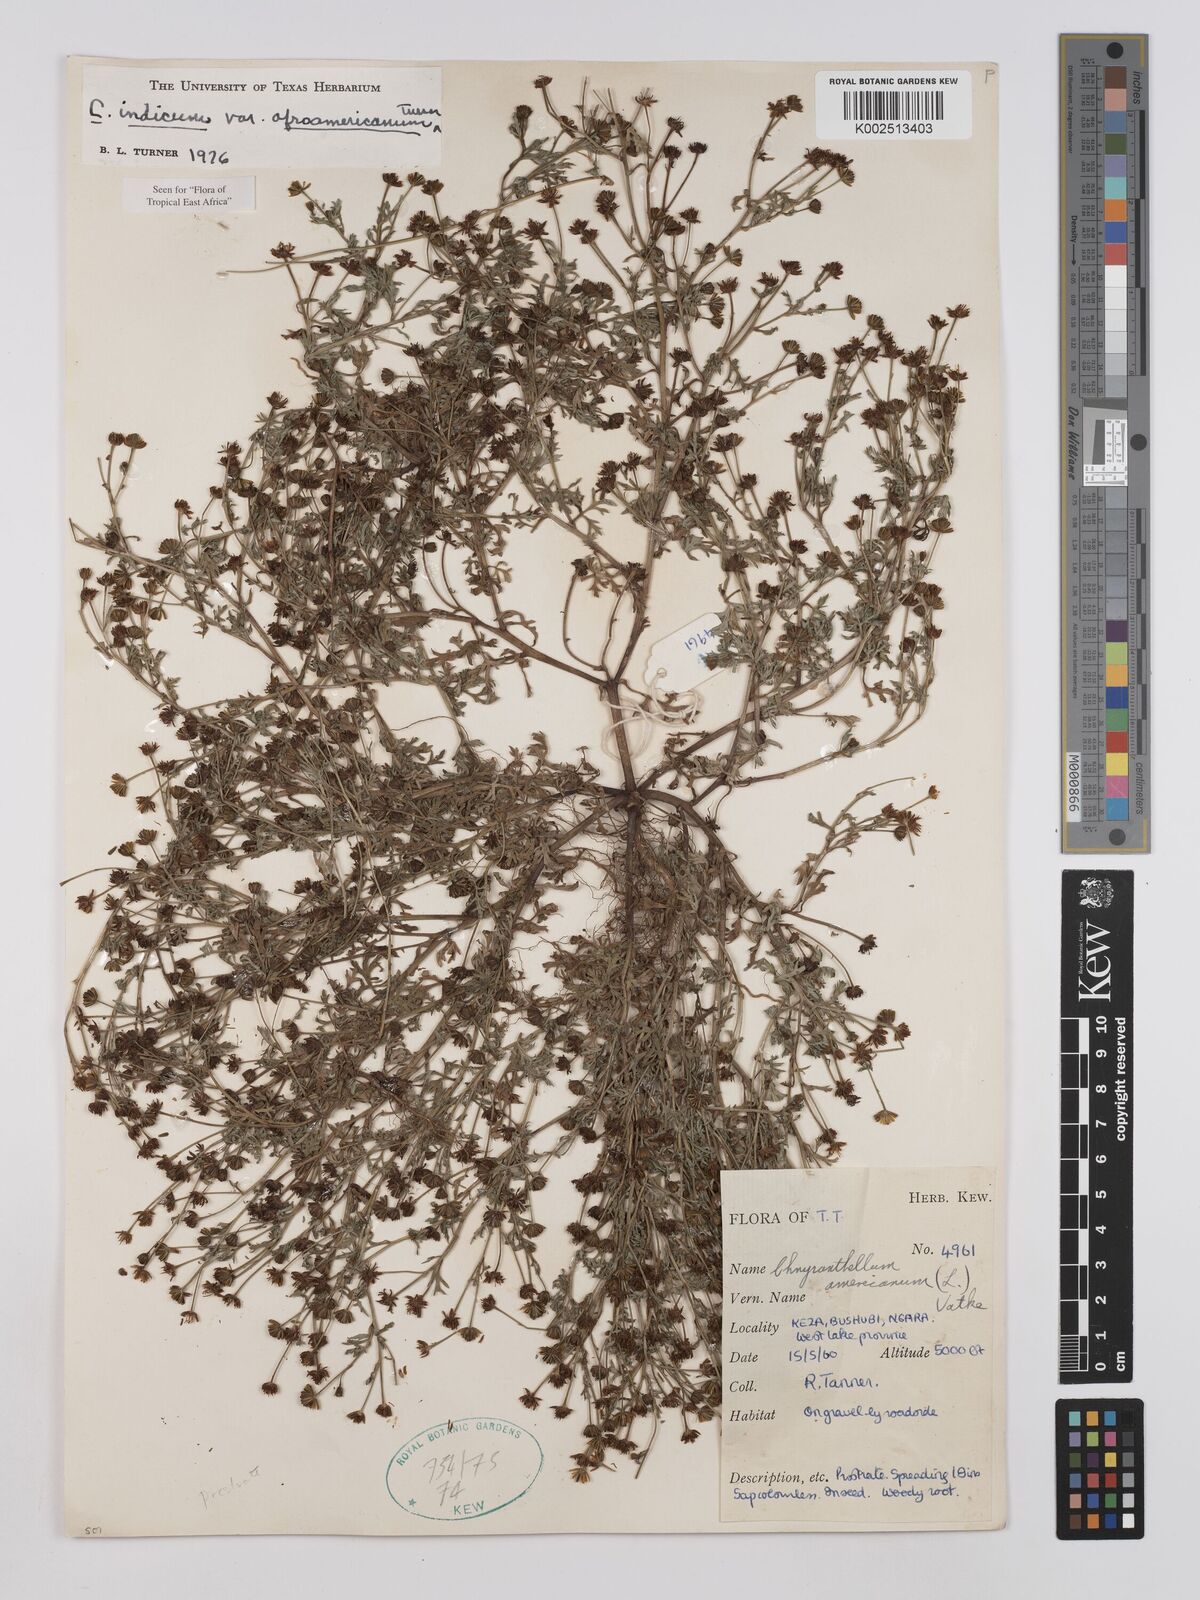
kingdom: Plantae
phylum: Tracheophyta
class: Magnoliopsida
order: Asterales
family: Asteraceae
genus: Chrysanthellum
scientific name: Chrysanthellum indicum
